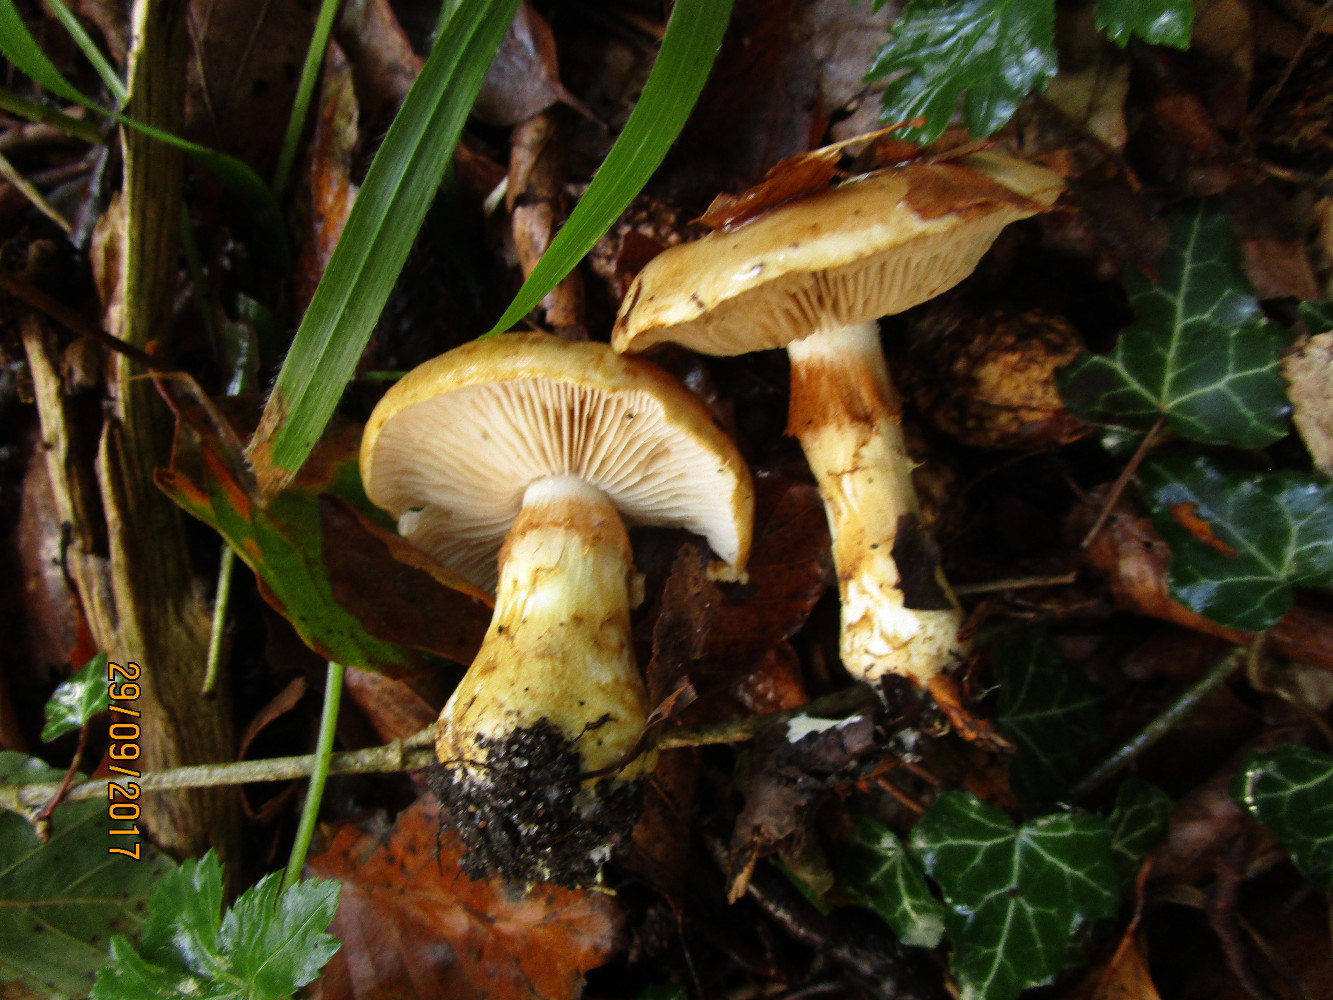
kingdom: Fungi
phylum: Basidiomycota
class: Agaricomycetes
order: Agaricales
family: Cortinariaceae
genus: Phlegmacium
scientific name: Phlegmacium cliduchus
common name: majs-slørhat
